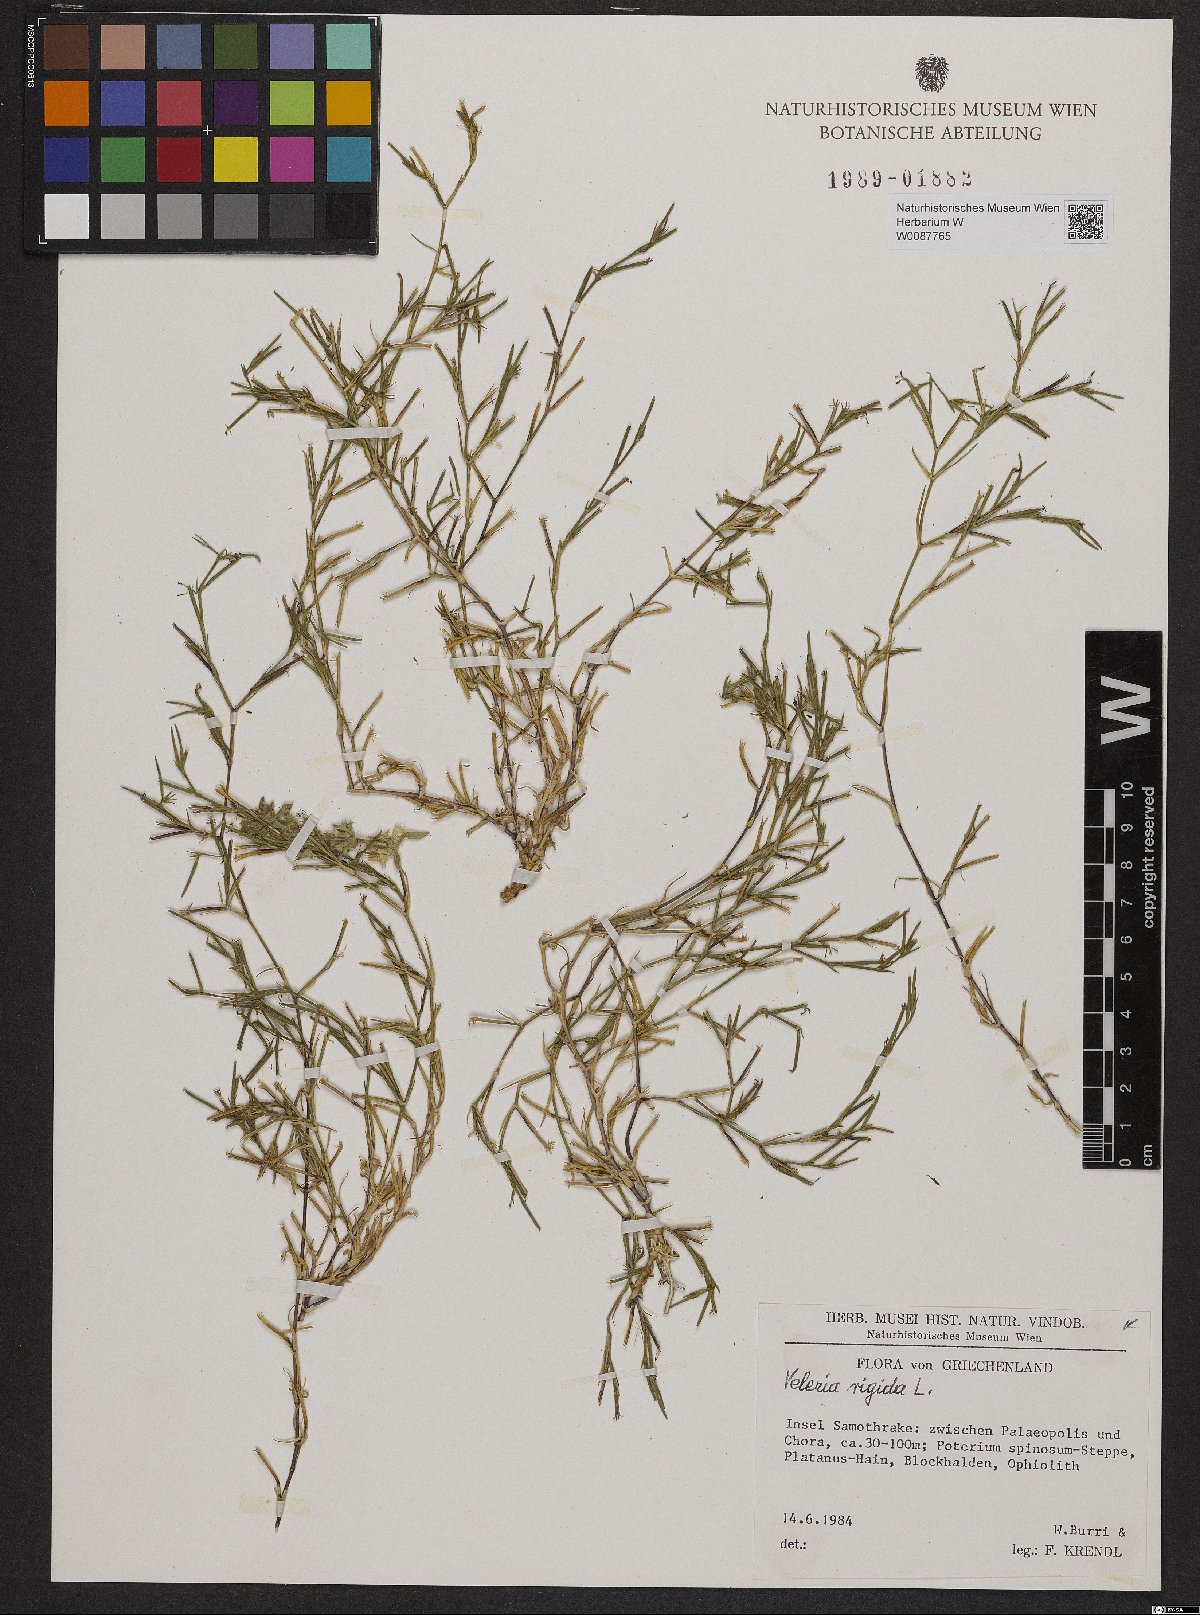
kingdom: Plantae
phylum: Tracheophyta
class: Magnoliopsida
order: Caryophyllales
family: Caryophyllaceae
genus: Dianthus
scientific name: Dianthus nudiflorus
